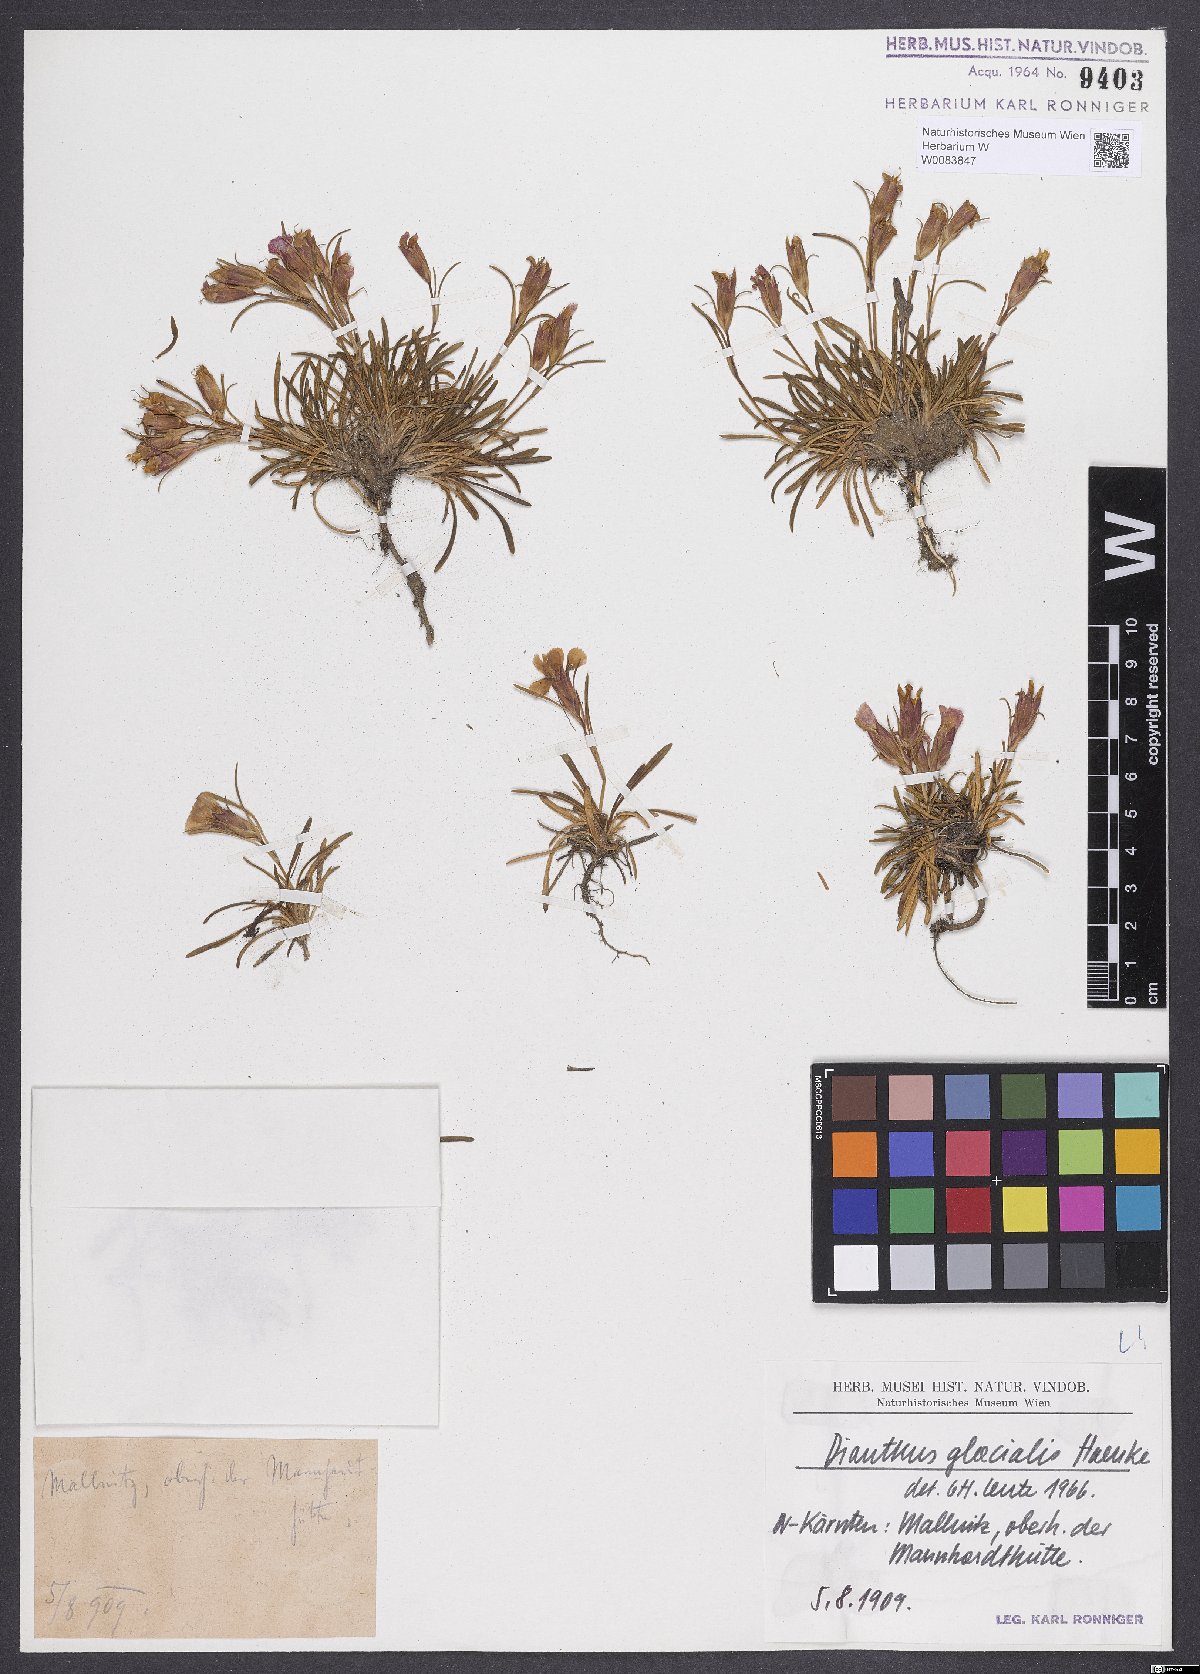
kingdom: Plantae
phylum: Tracheophyta
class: Magnoliopsida
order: Caryophyllales
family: Caryophyllaceae
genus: Dianthus
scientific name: Dianthus glacialis
